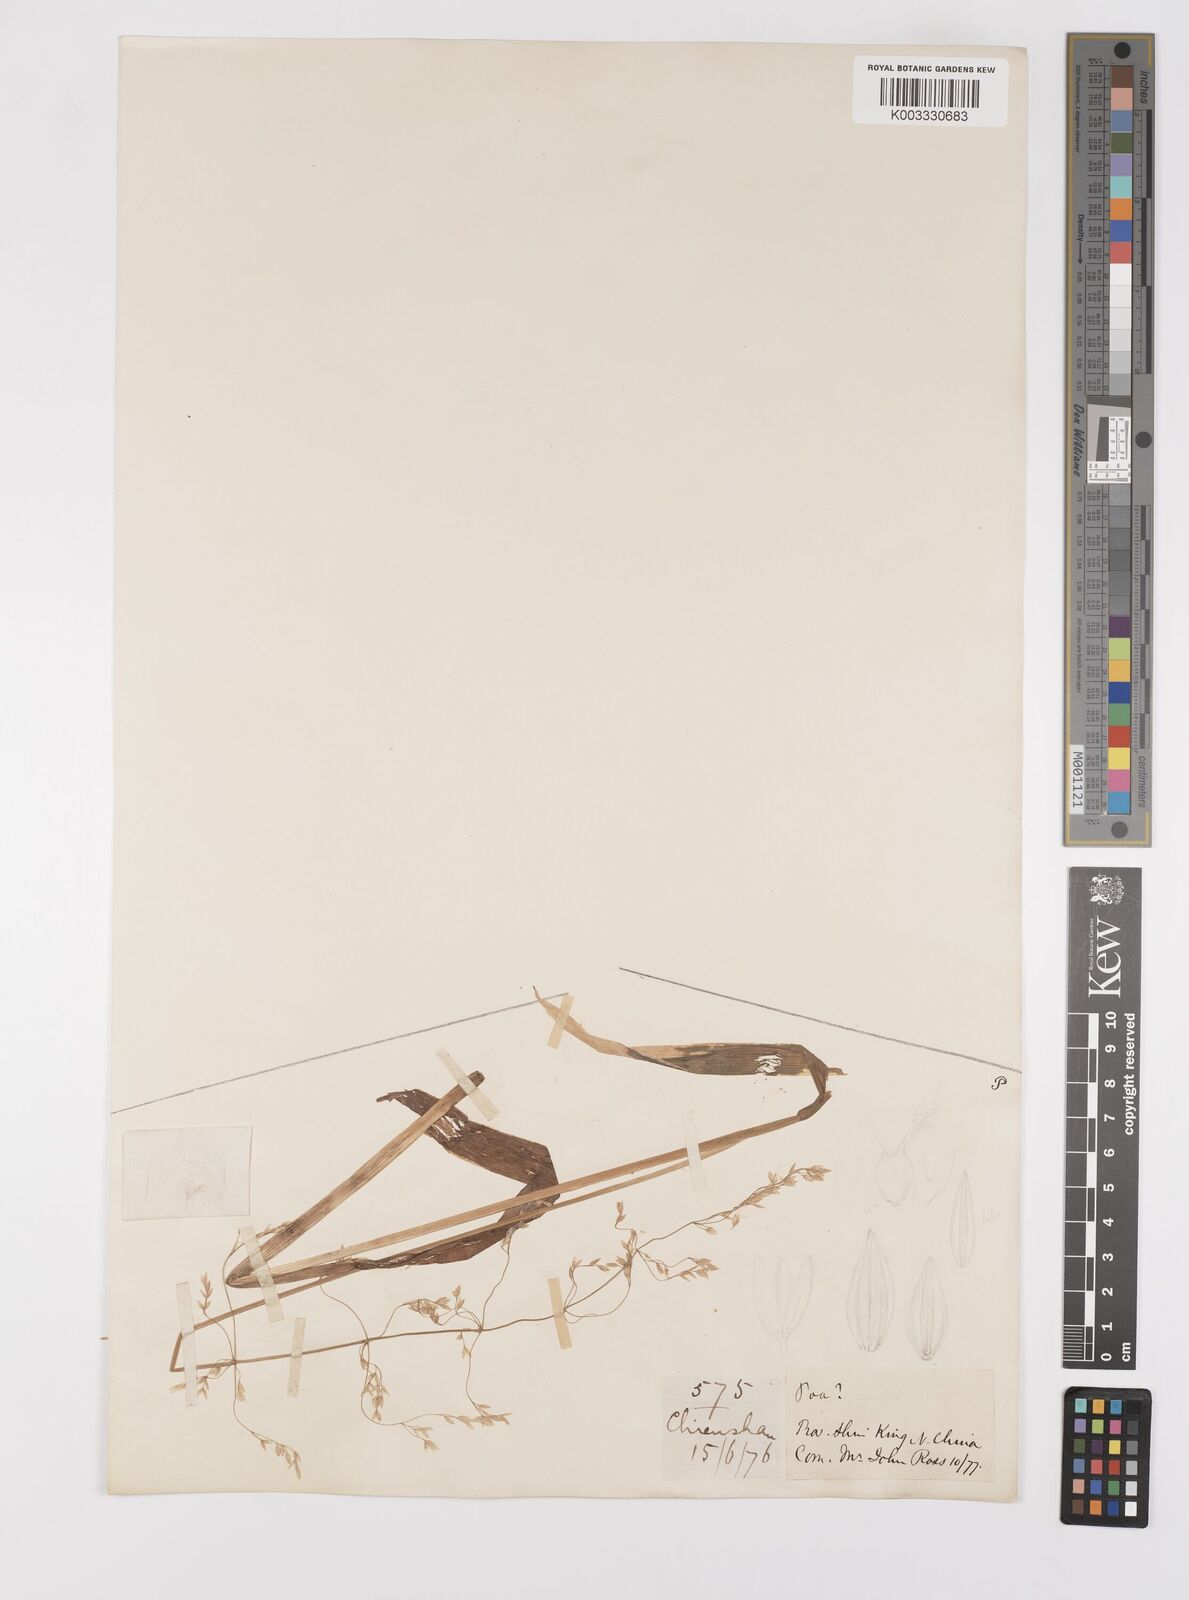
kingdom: Plantae
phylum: Tracheophyta
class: Liliopsida
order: Poales
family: Poaceae
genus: Milium
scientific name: Milium effusum
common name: Wood millet
